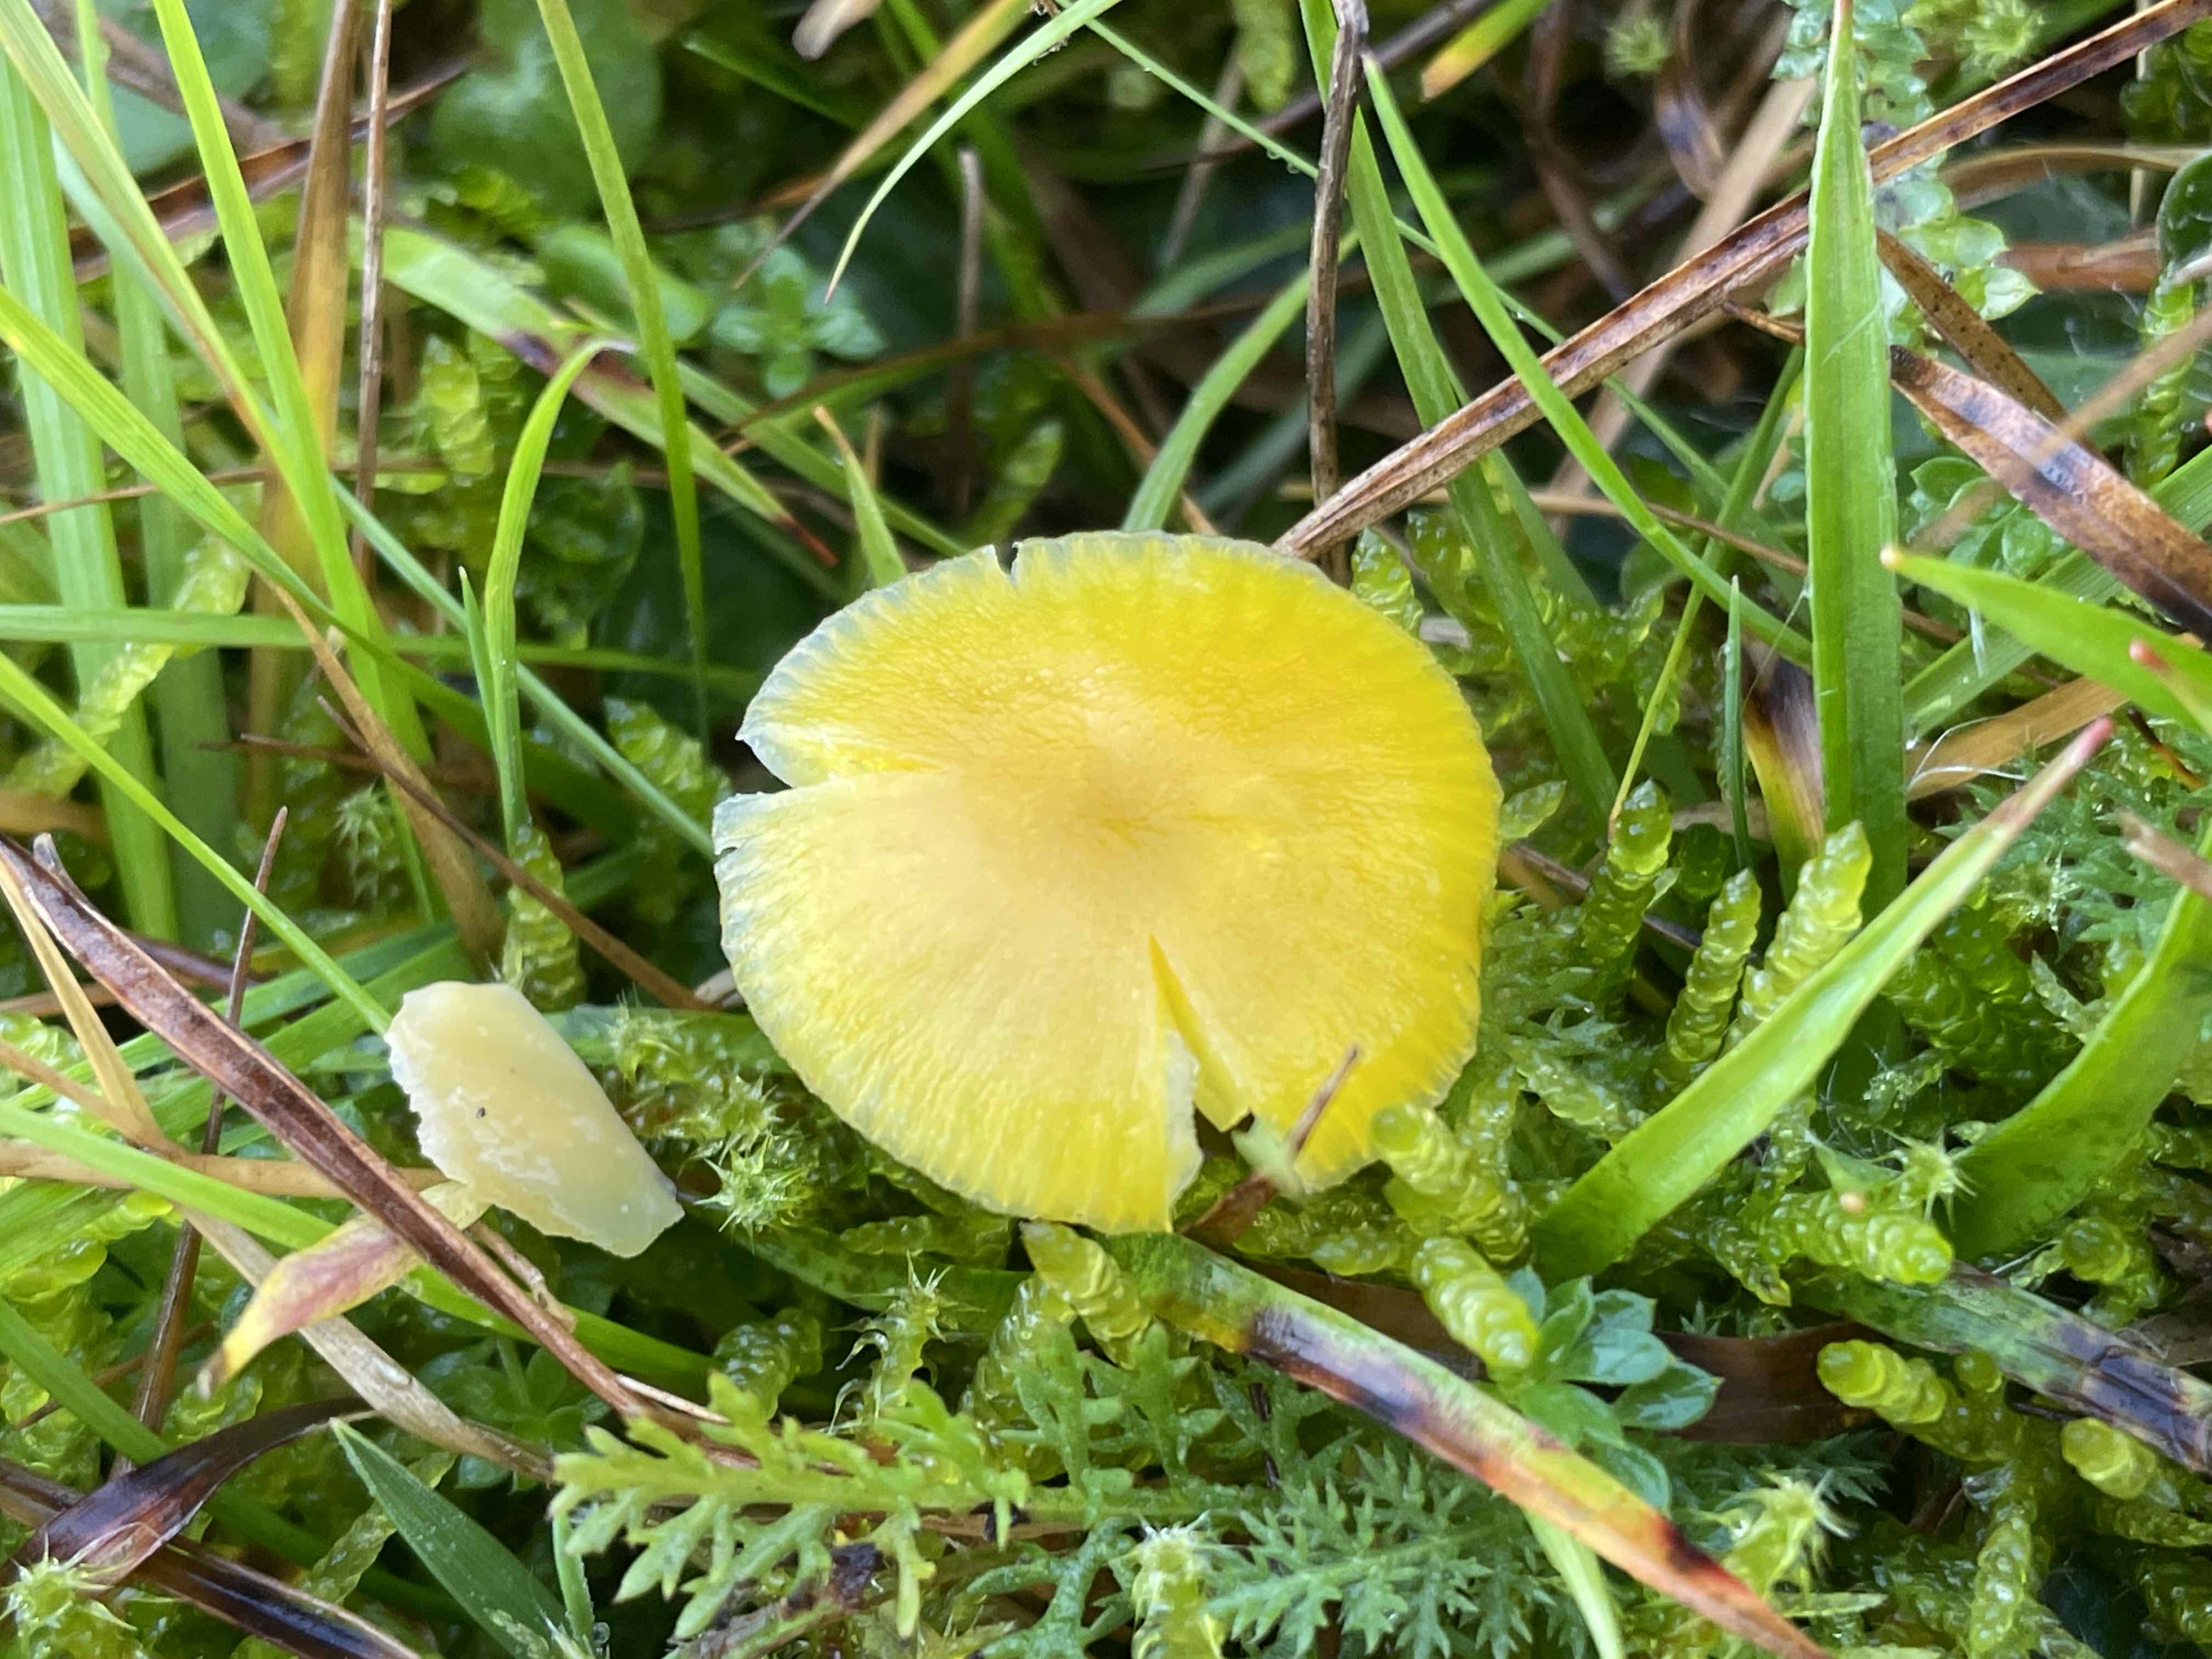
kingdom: Fungi
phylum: Basidiomycota
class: Agaricomycetes
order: Agaricales
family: Hygrophoraceae
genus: Hygrocybe
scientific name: Hygrocybe ceracea
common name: voksgul vokshat
